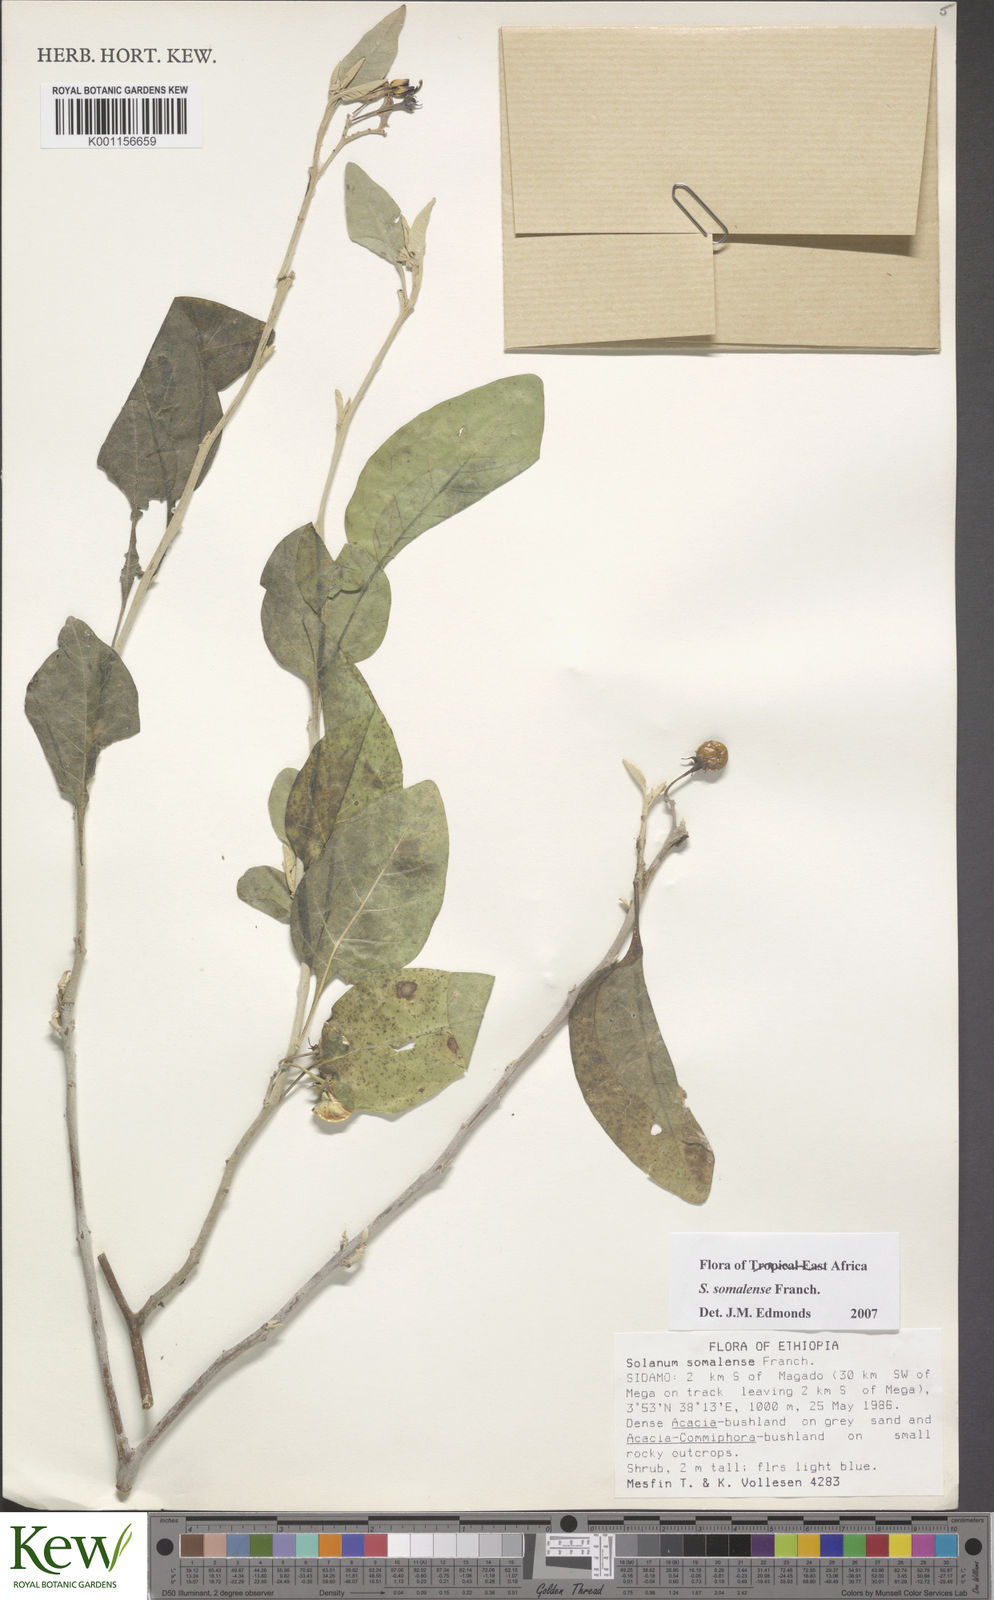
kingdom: Plantae
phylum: Tracheophyta
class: Magnoliopsida
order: Solanales
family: Solanaceae
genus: Solanum
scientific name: Solanum somalense
